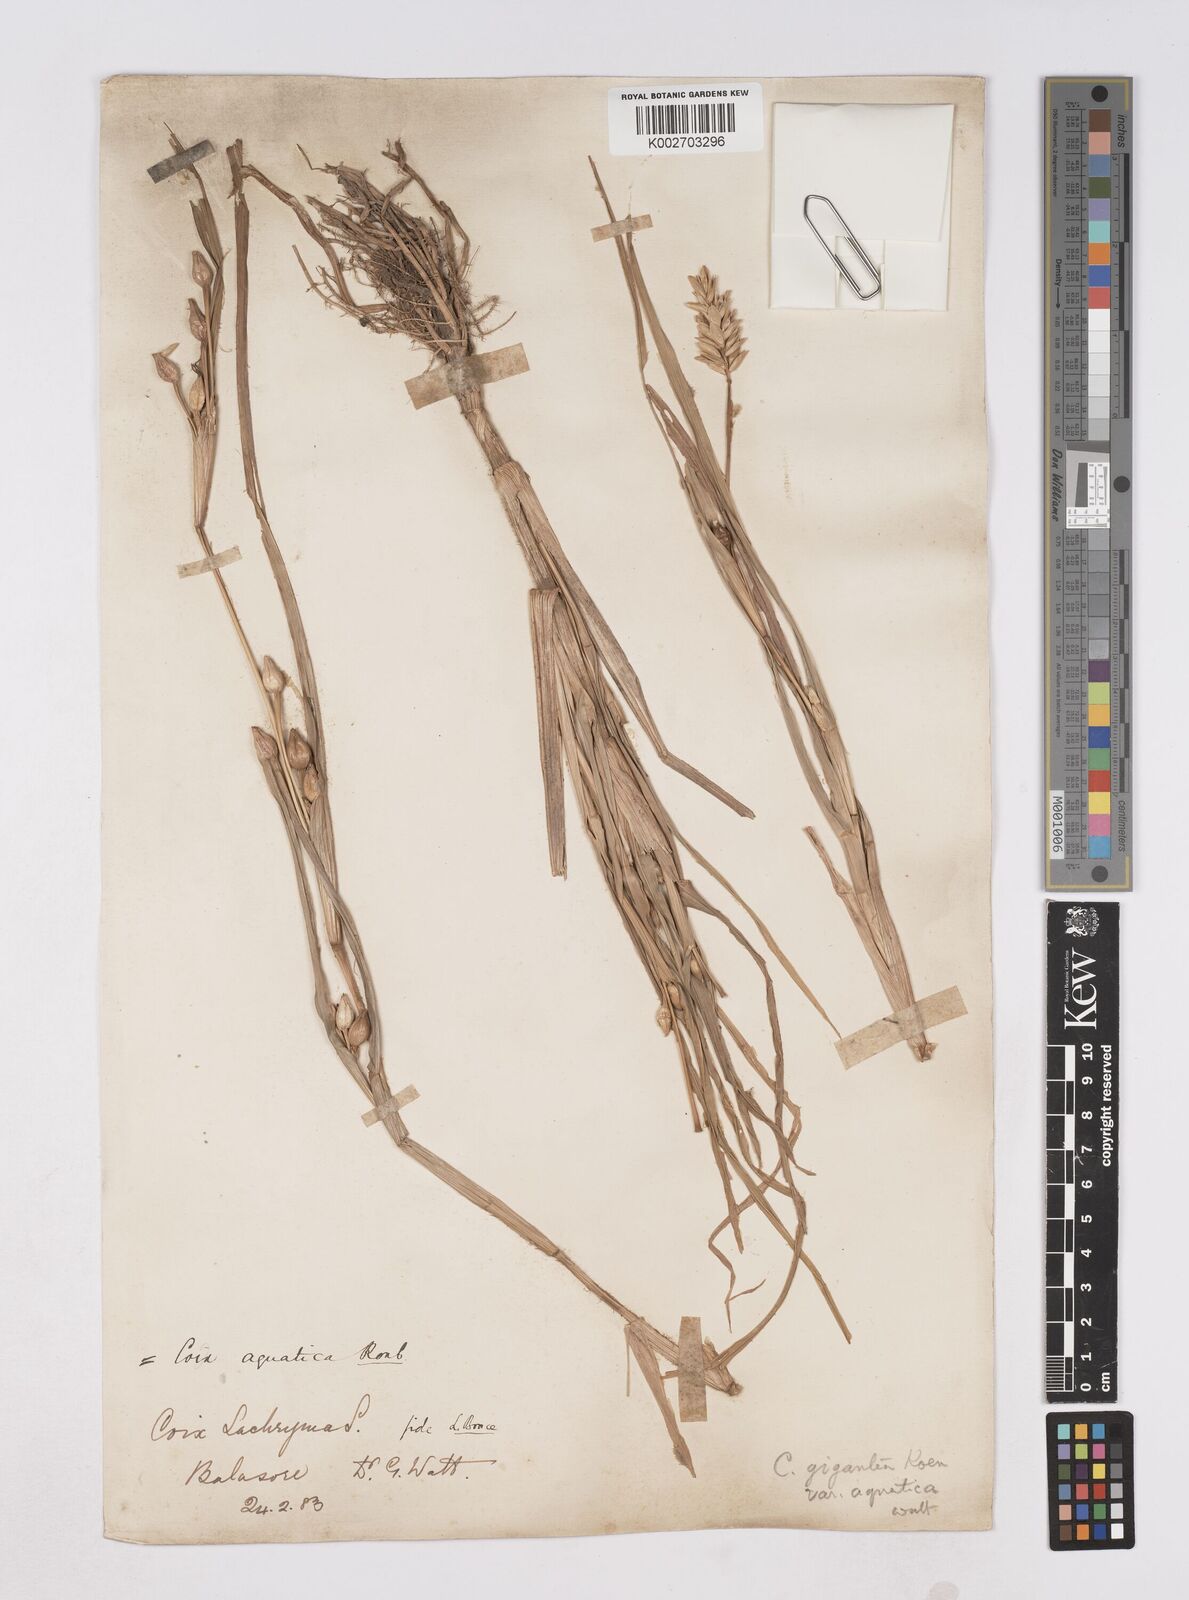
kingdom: Plantae
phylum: Tracheophyta
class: Liliopsida
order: Poales
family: Poaceae
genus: Coix
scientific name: Coix aquatica
